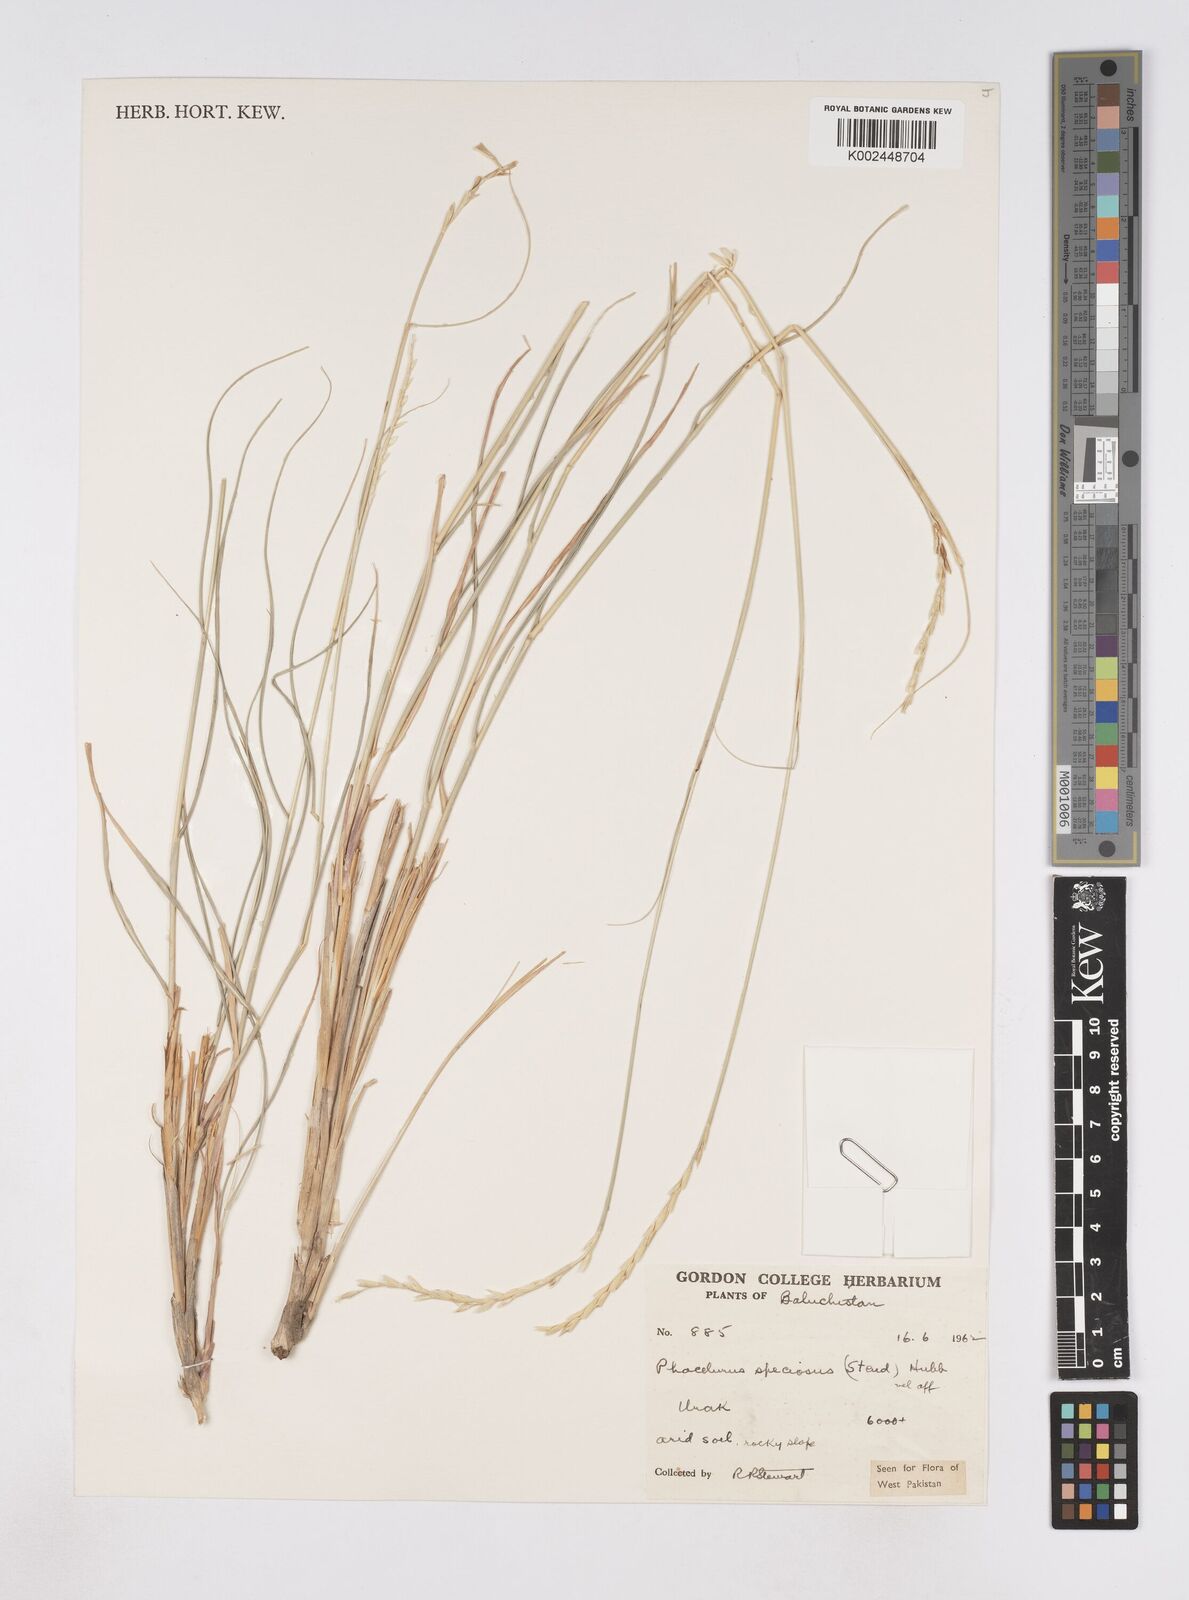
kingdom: Plantae
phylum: Tracheophyta
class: Liliopsida
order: Poales
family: Poaceae
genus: Phacelurus
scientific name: Phacelurus speciosus
